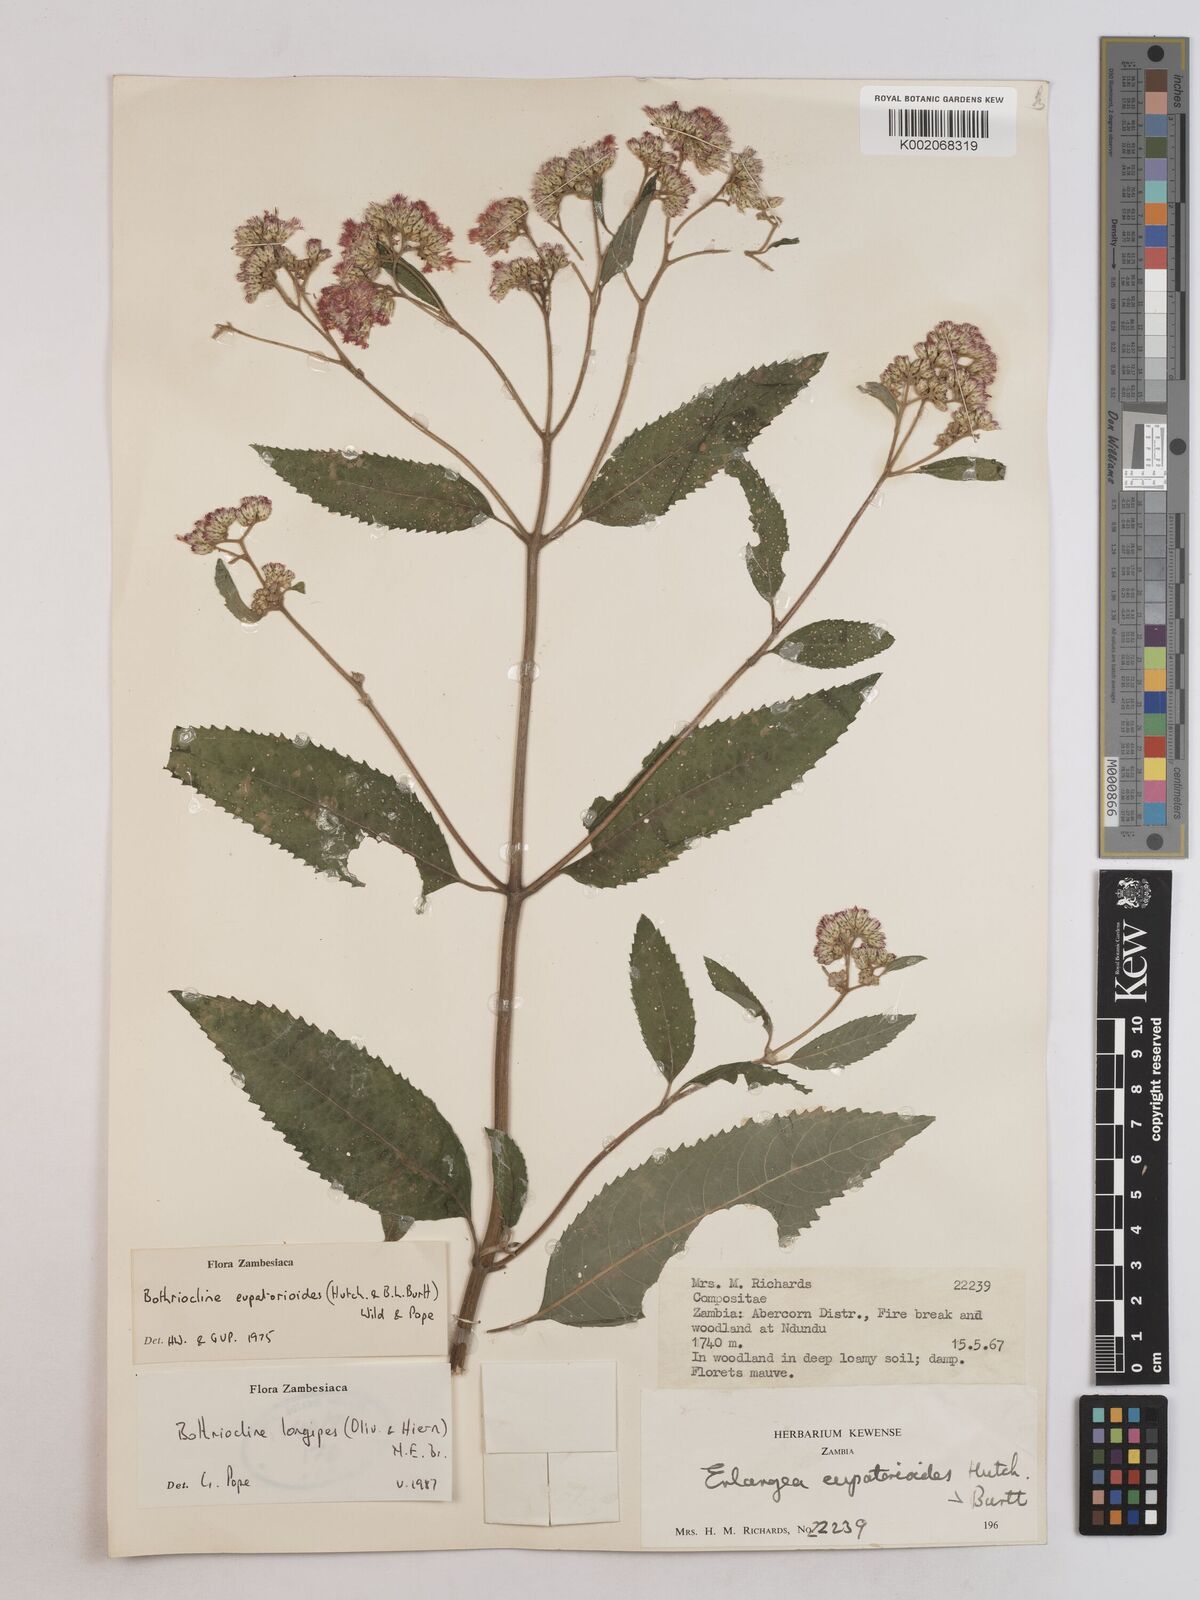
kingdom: Plantae
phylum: Tracheophyta
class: Magnoliopsida
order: Asterales
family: Asteraceae
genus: Bothriocline
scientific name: Bothriocline longipes
